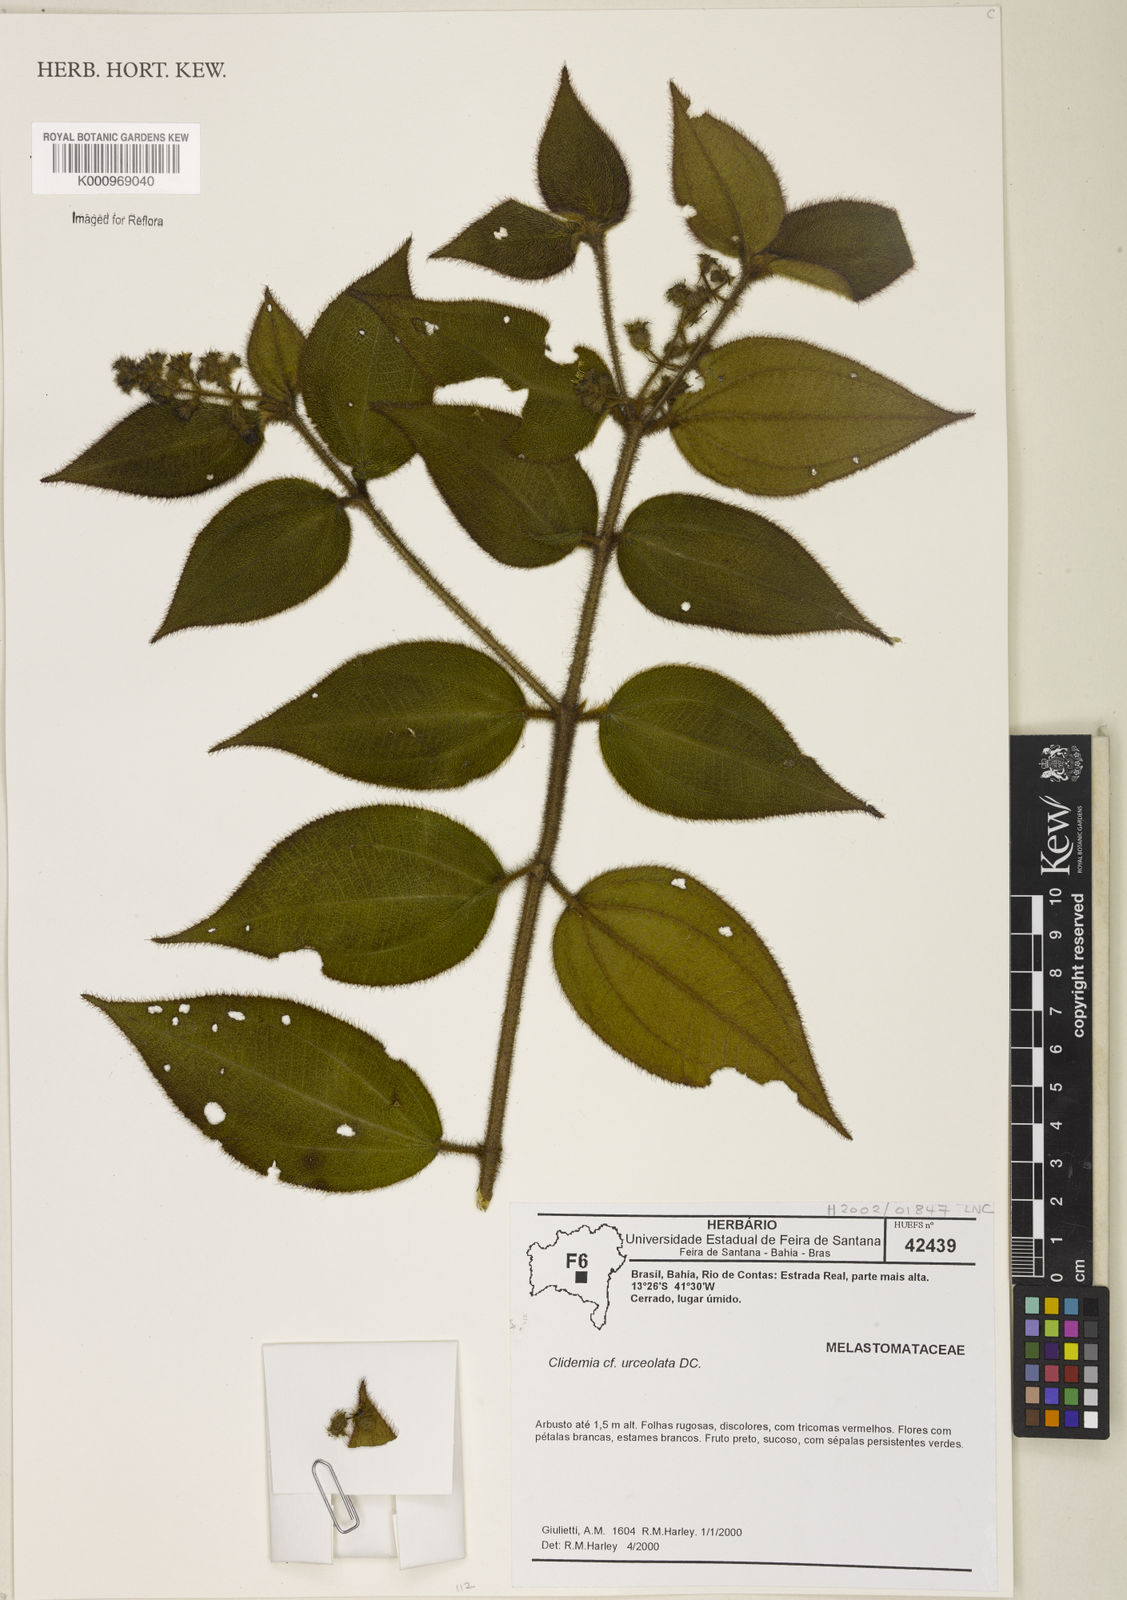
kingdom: Plantae
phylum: Tracheophyta
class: Magnoliopsida
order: Myrtales
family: Melastomataceae
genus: Miconia
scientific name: Miconia neourceolata
